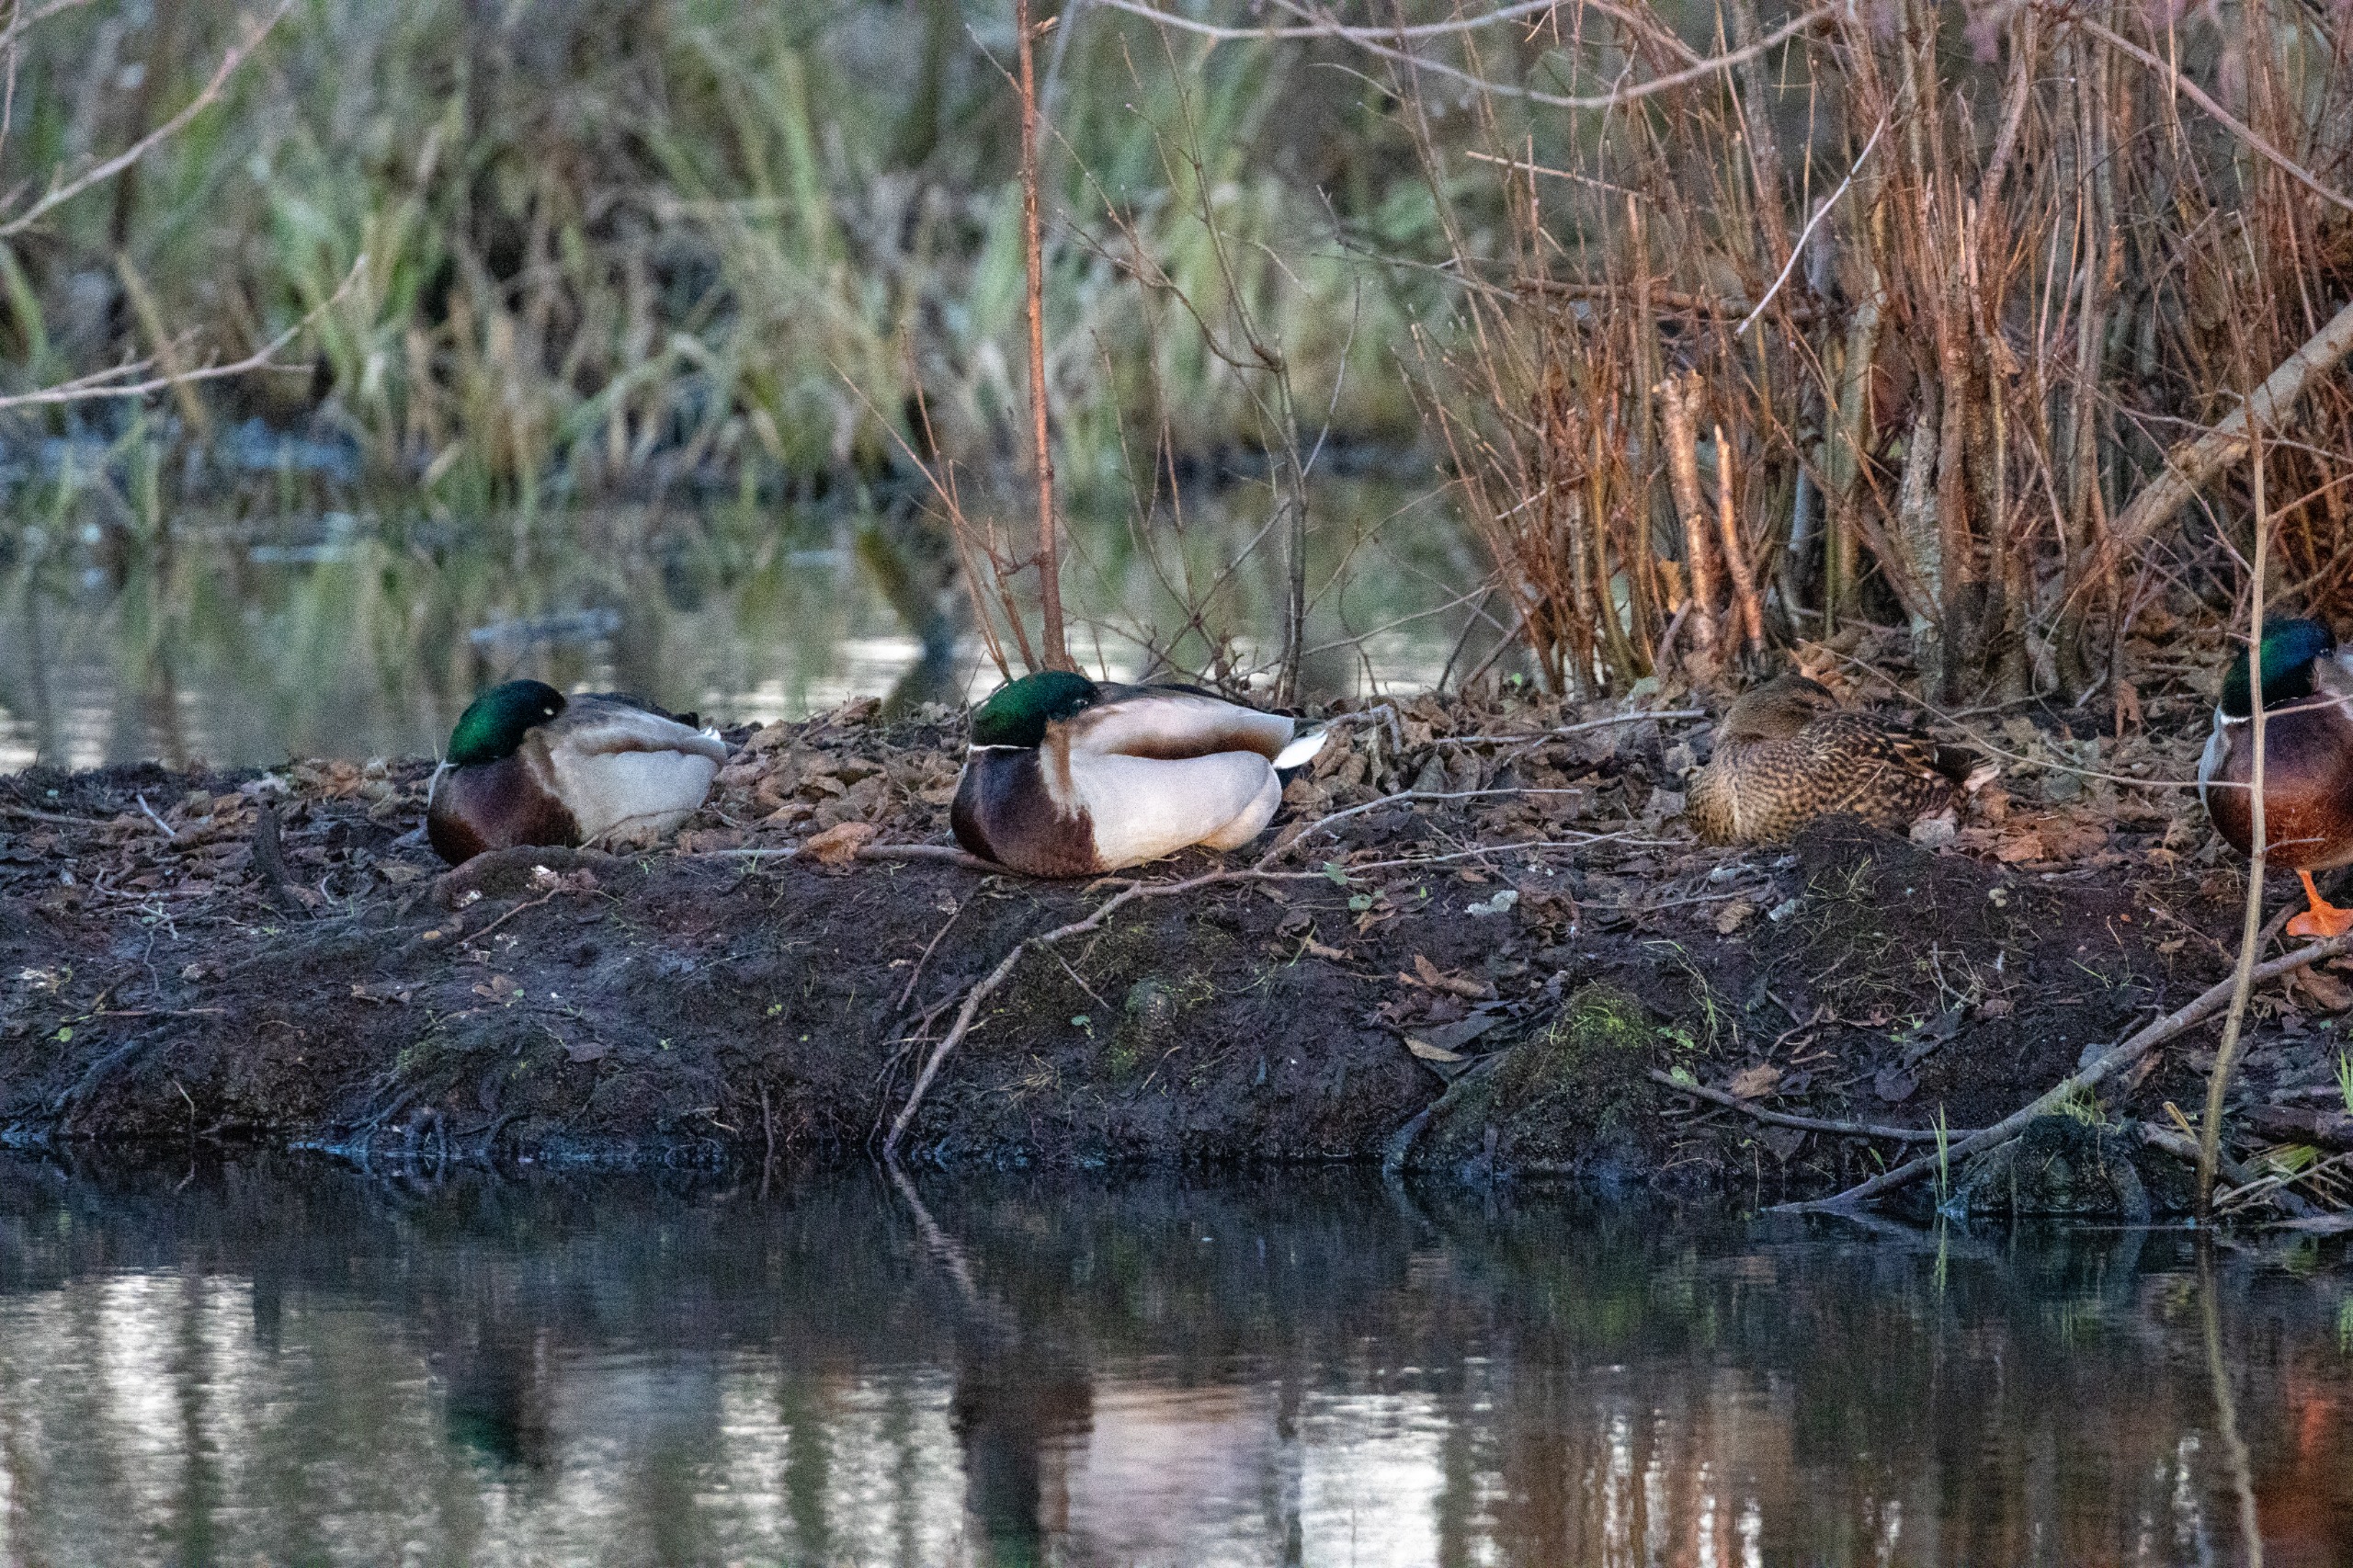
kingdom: Animalia
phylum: Chordata
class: Aves
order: Anseriformes
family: Anatidae
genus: Anas
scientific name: Anas platyrhynchos
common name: Gråand
